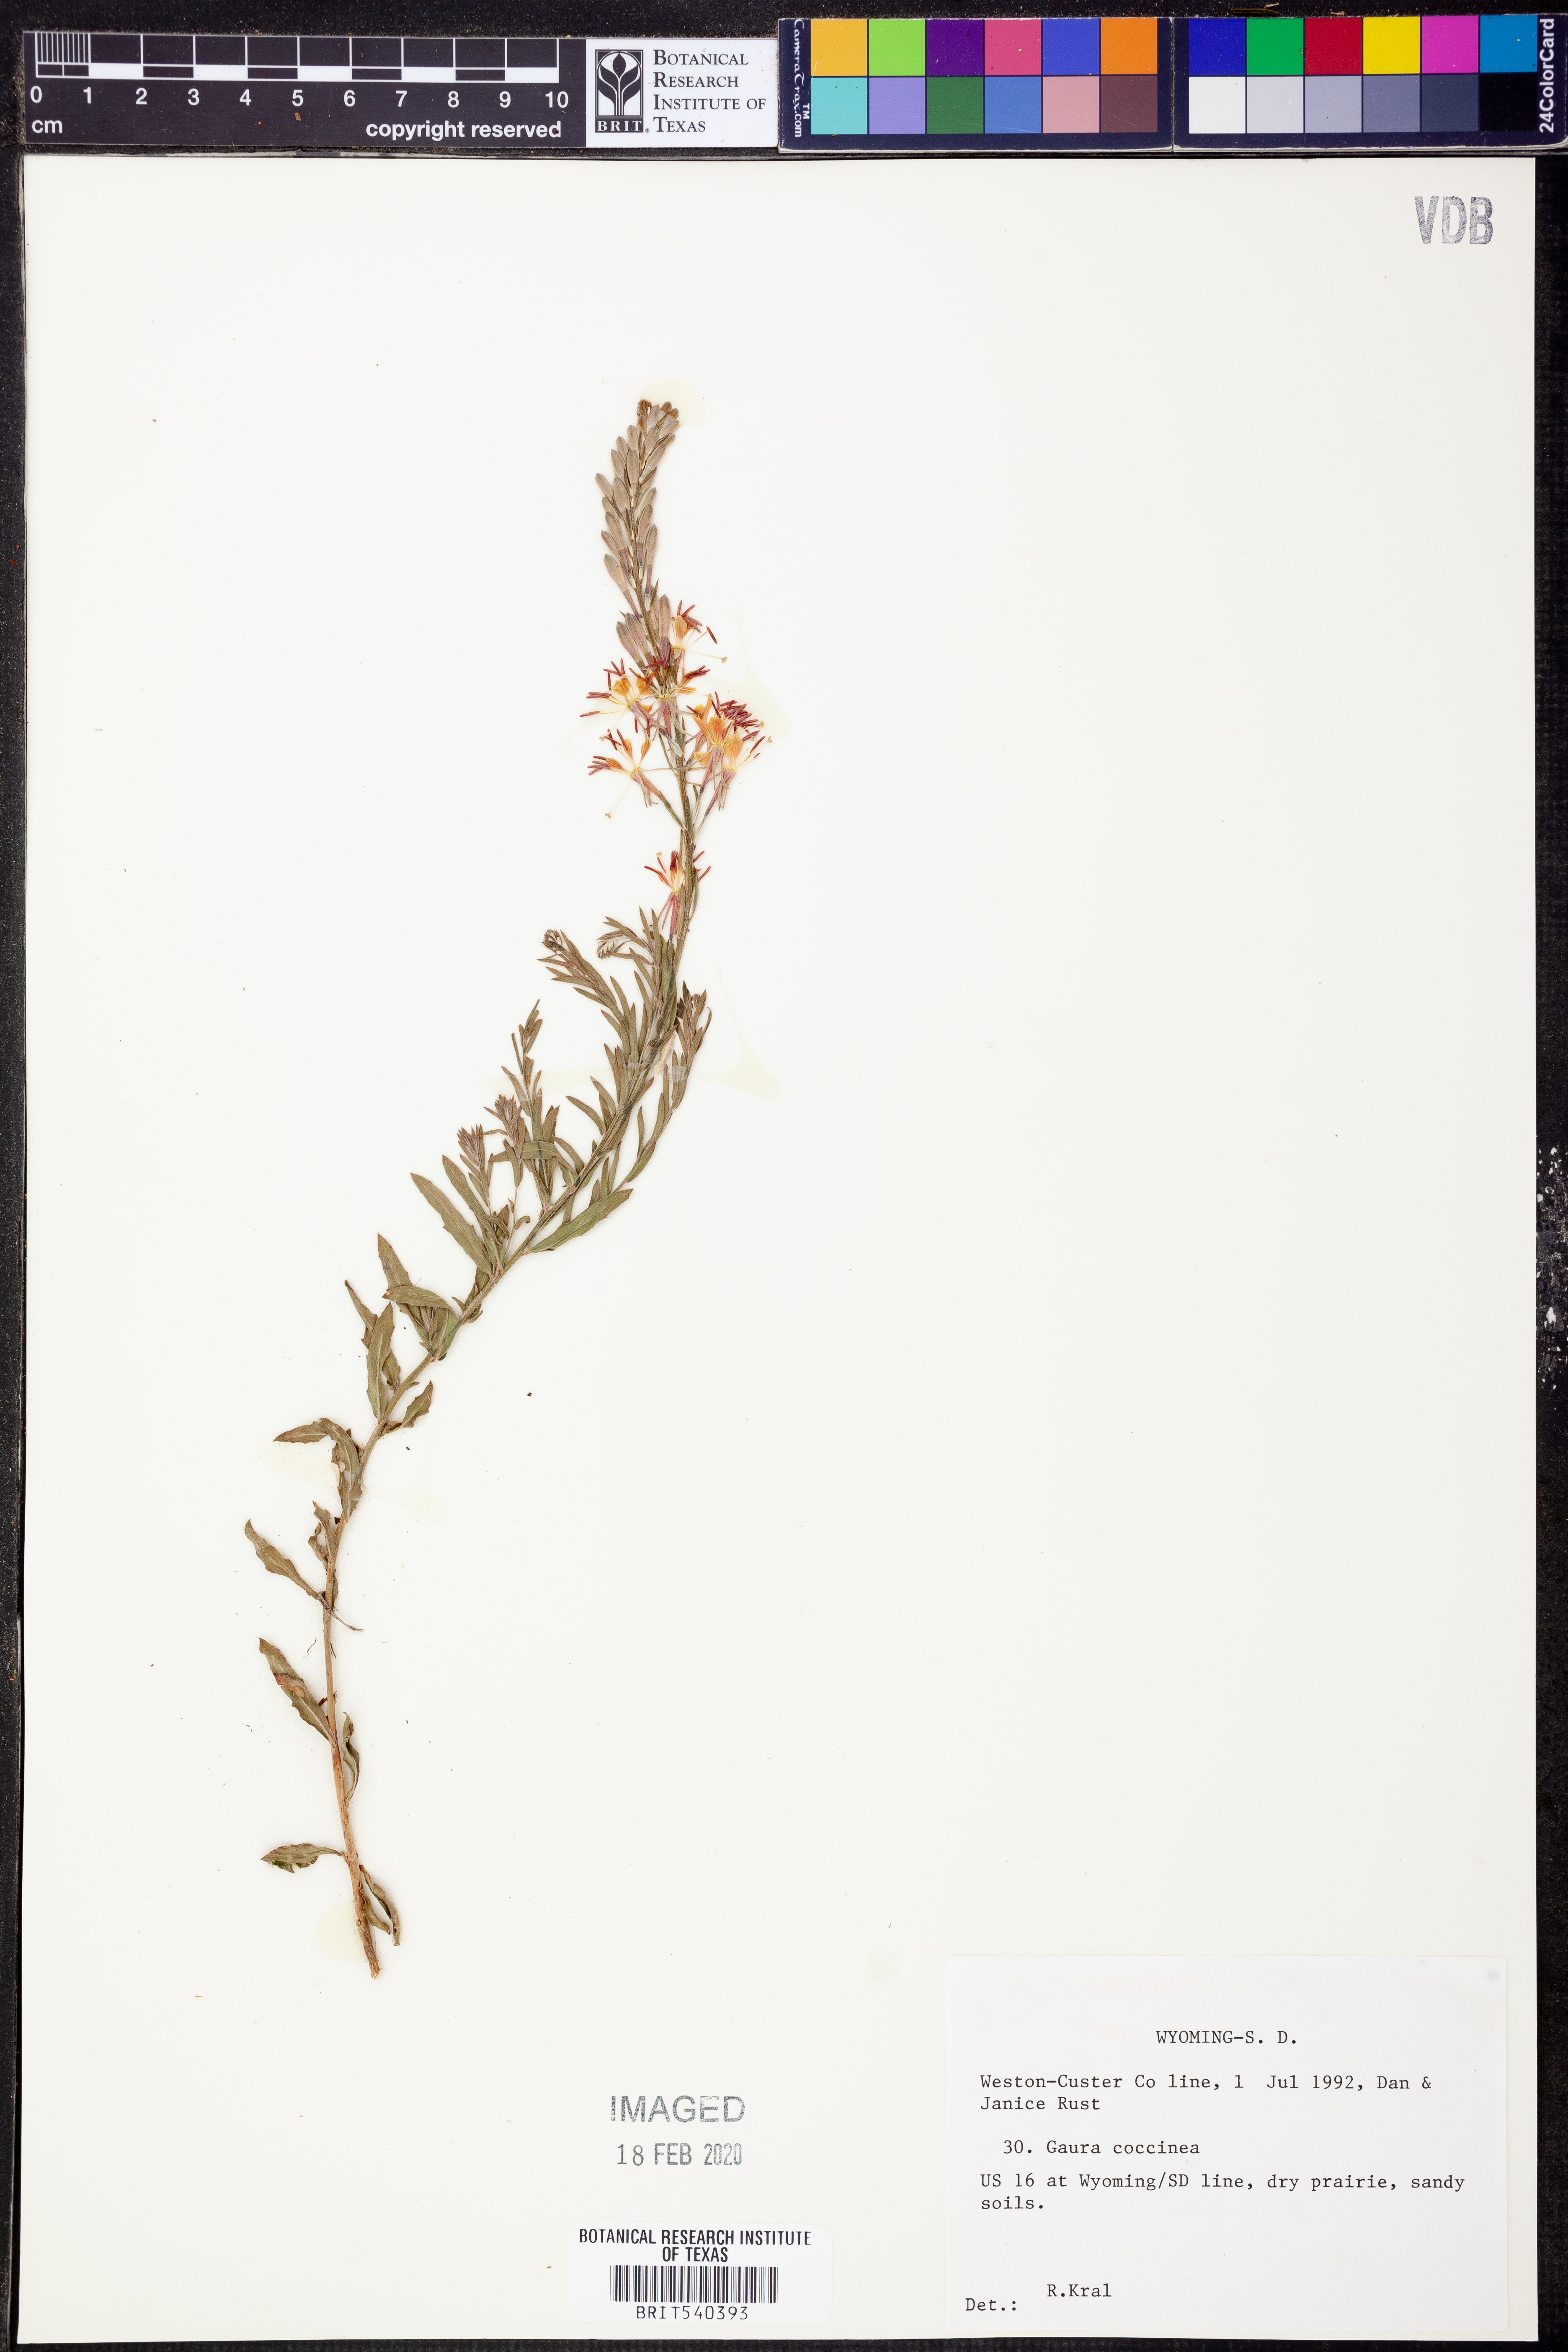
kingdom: Plantae
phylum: Tracheophyta
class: Magnoliopsida
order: Myrtales
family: Onagraceae
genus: Oenothera
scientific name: Oenothera suffrutescens
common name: Scarlet beeblossom
